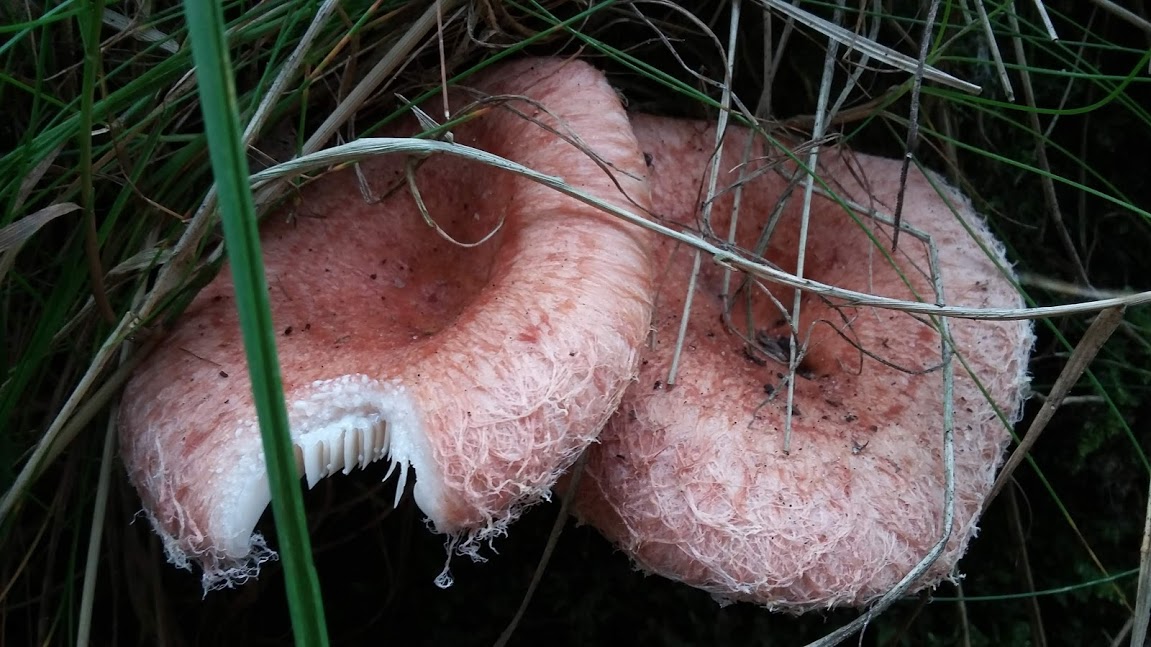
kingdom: Fungi
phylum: Basidiomycota
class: Agaricomycetes
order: Russulales
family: Russulaceae
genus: Lactarius
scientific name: Lactarius torminosus
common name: skægget mælkehat
